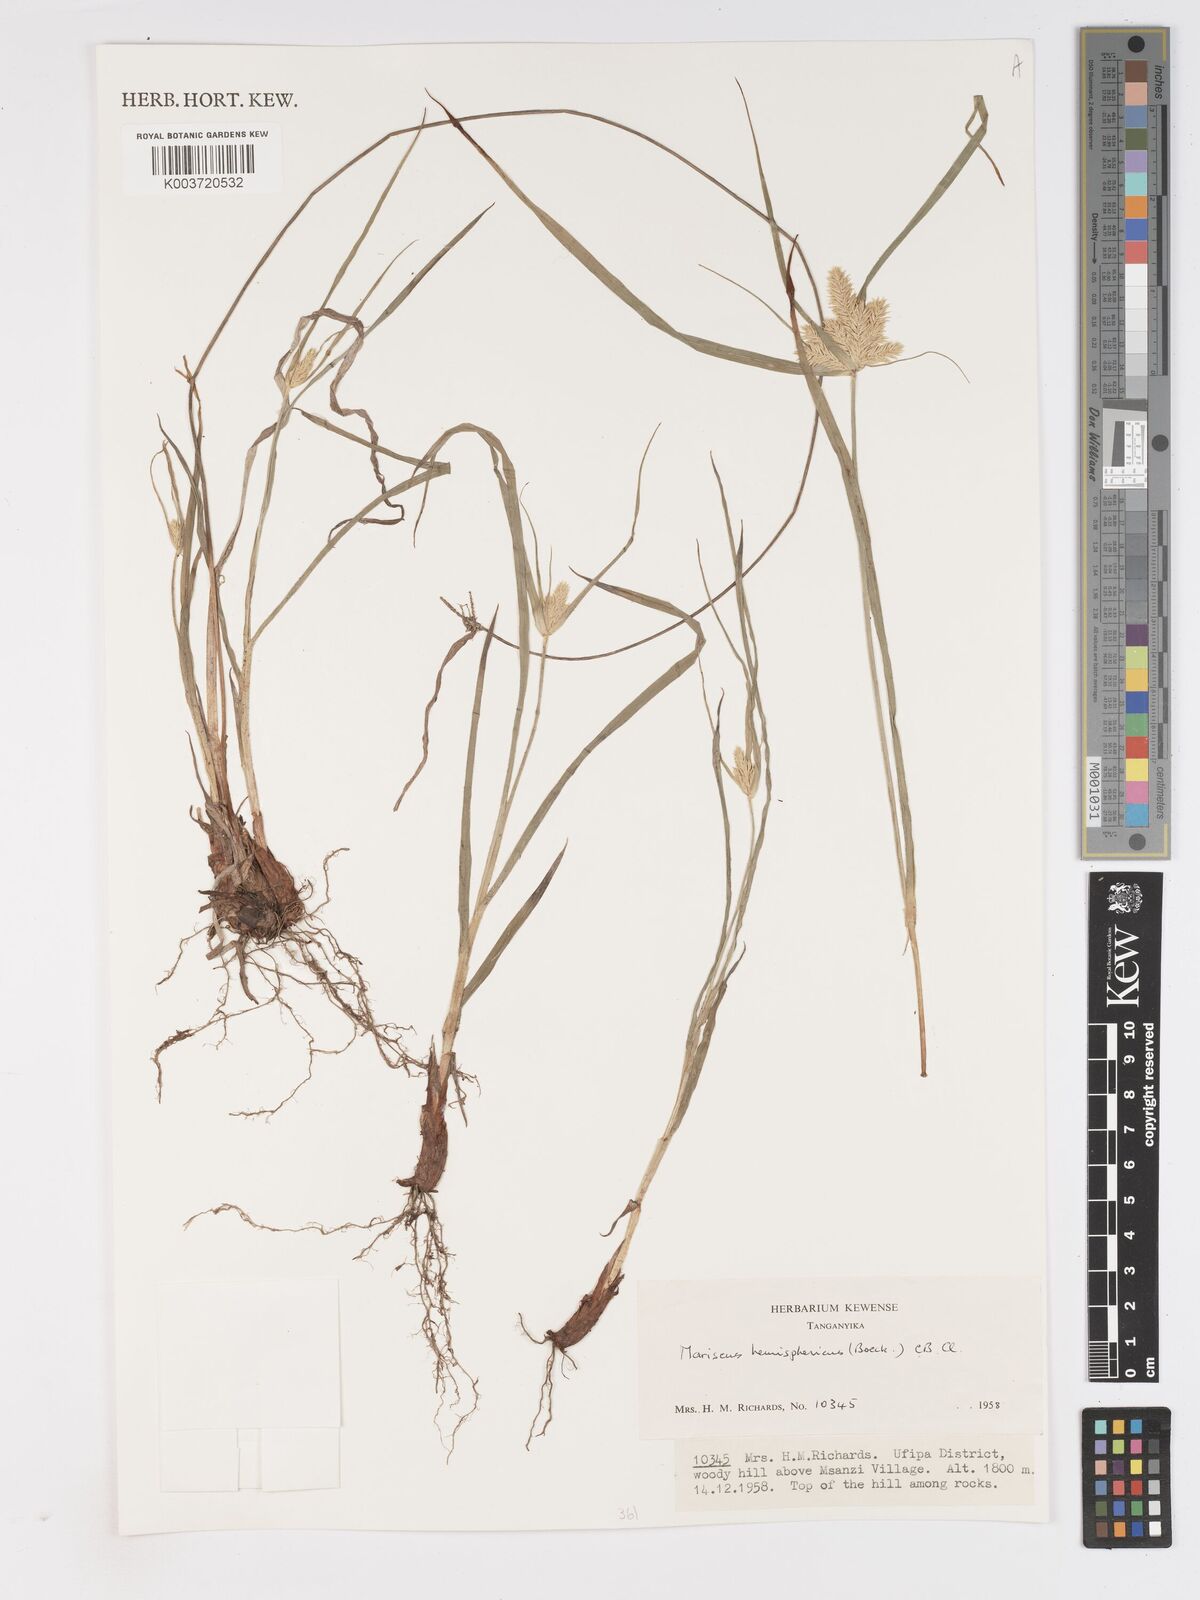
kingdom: Plantae
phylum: Tracheophyta
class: Liliopsida
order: Poales
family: Cyperaceae
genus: Cyperus
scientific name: Cyperus hemisphaericus
